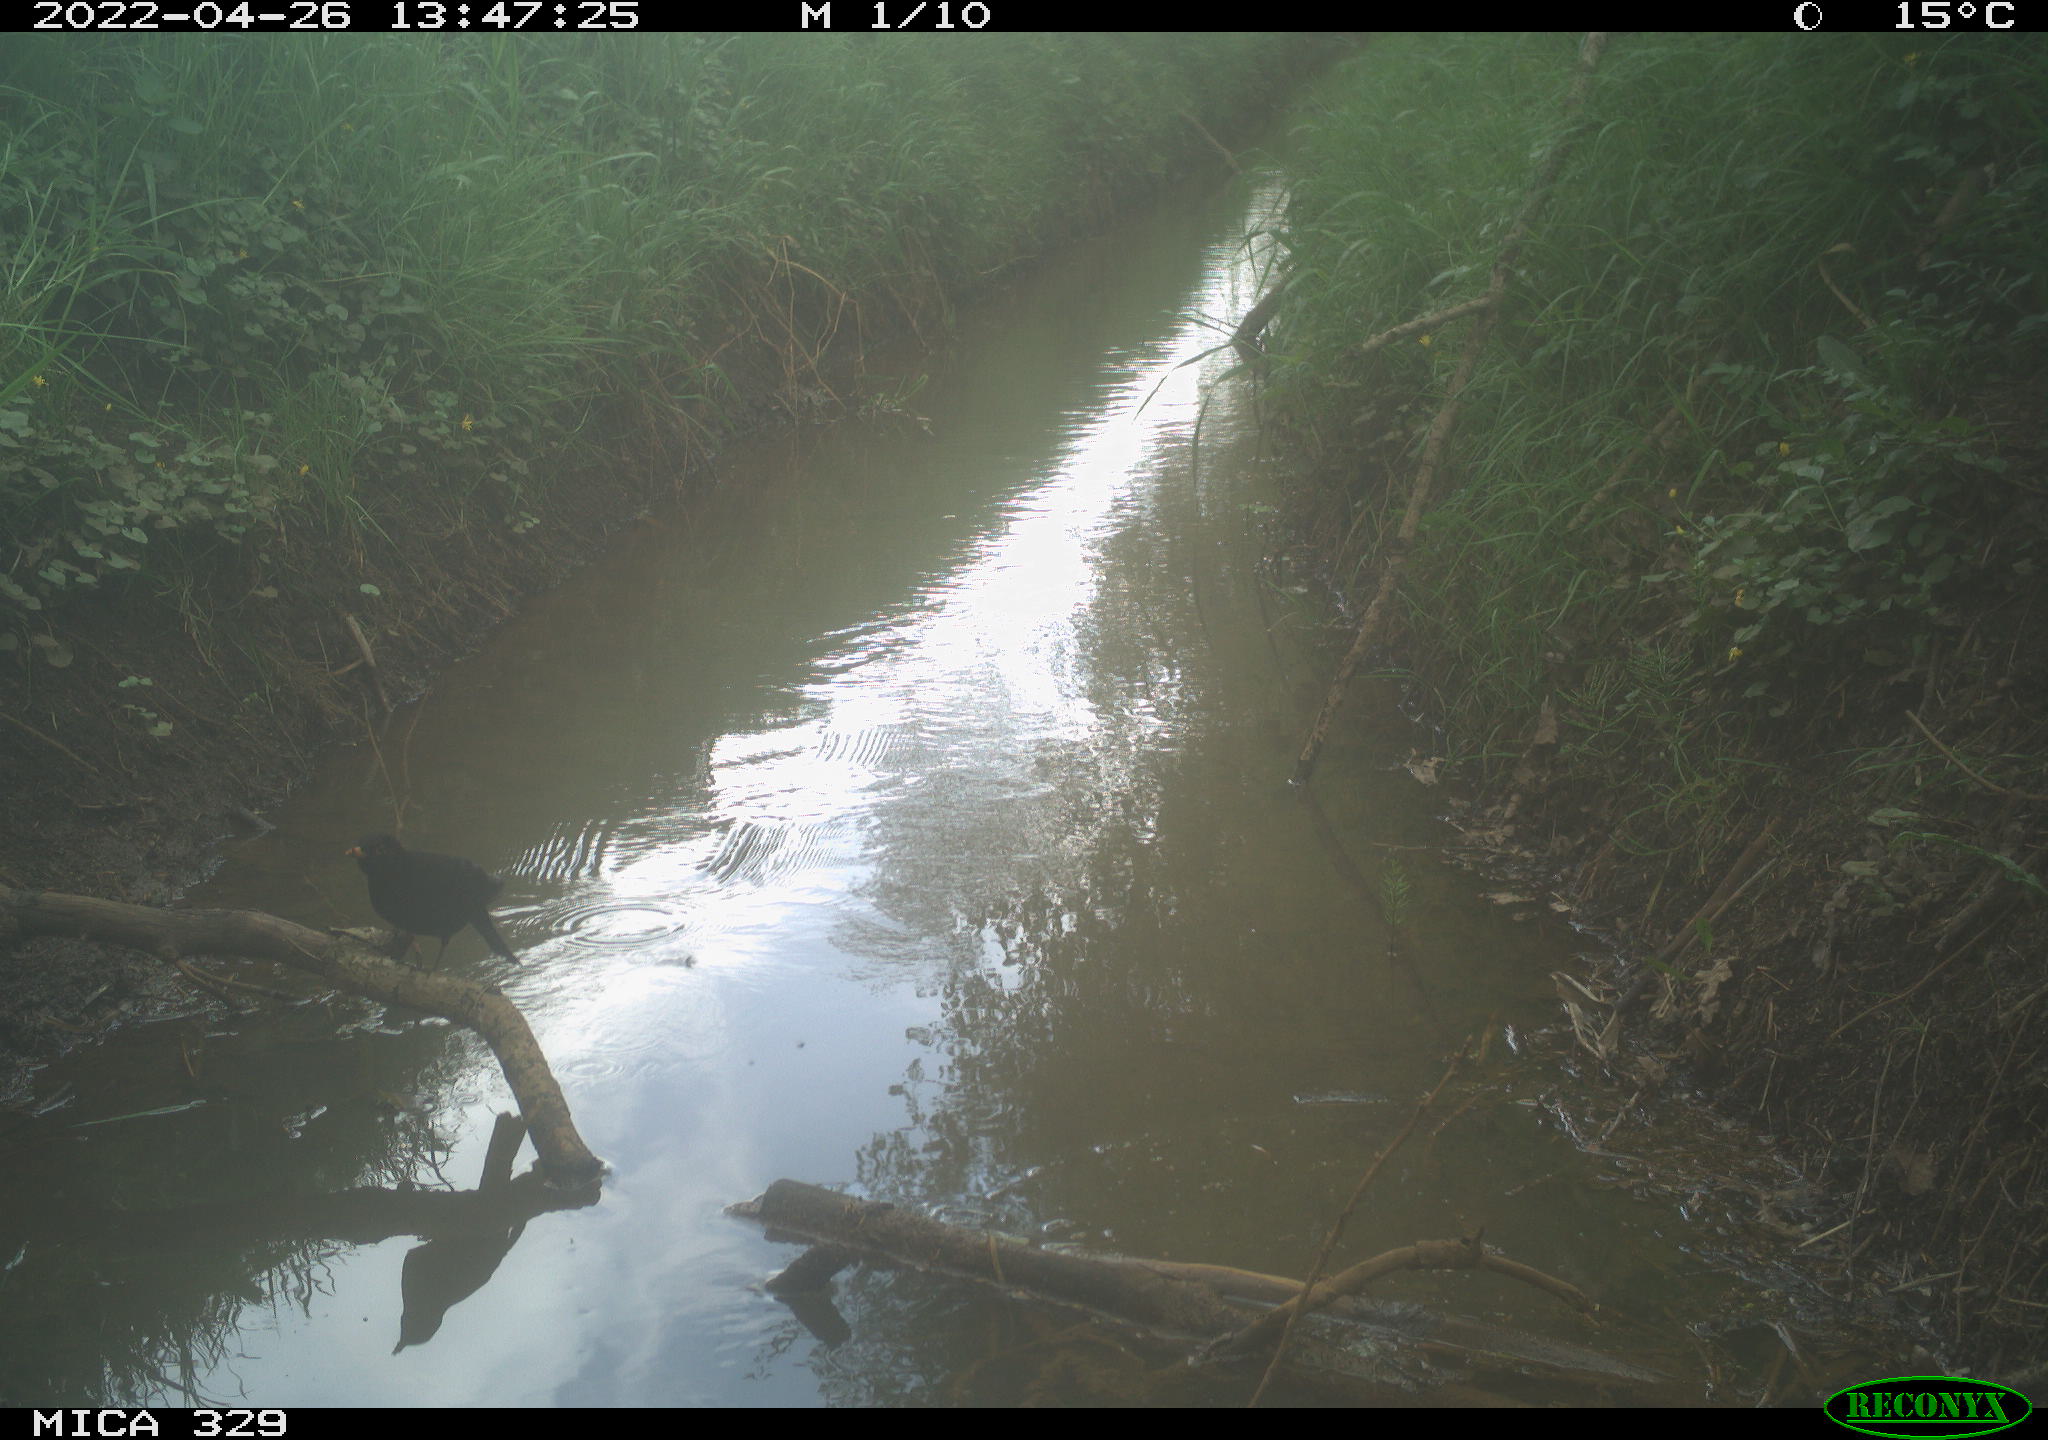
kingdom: Animalia
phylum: Chordata
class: Aves
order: Passeriformes
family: Turdidae
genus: Turdus
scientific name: Turdus merula
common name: Common blackbird
